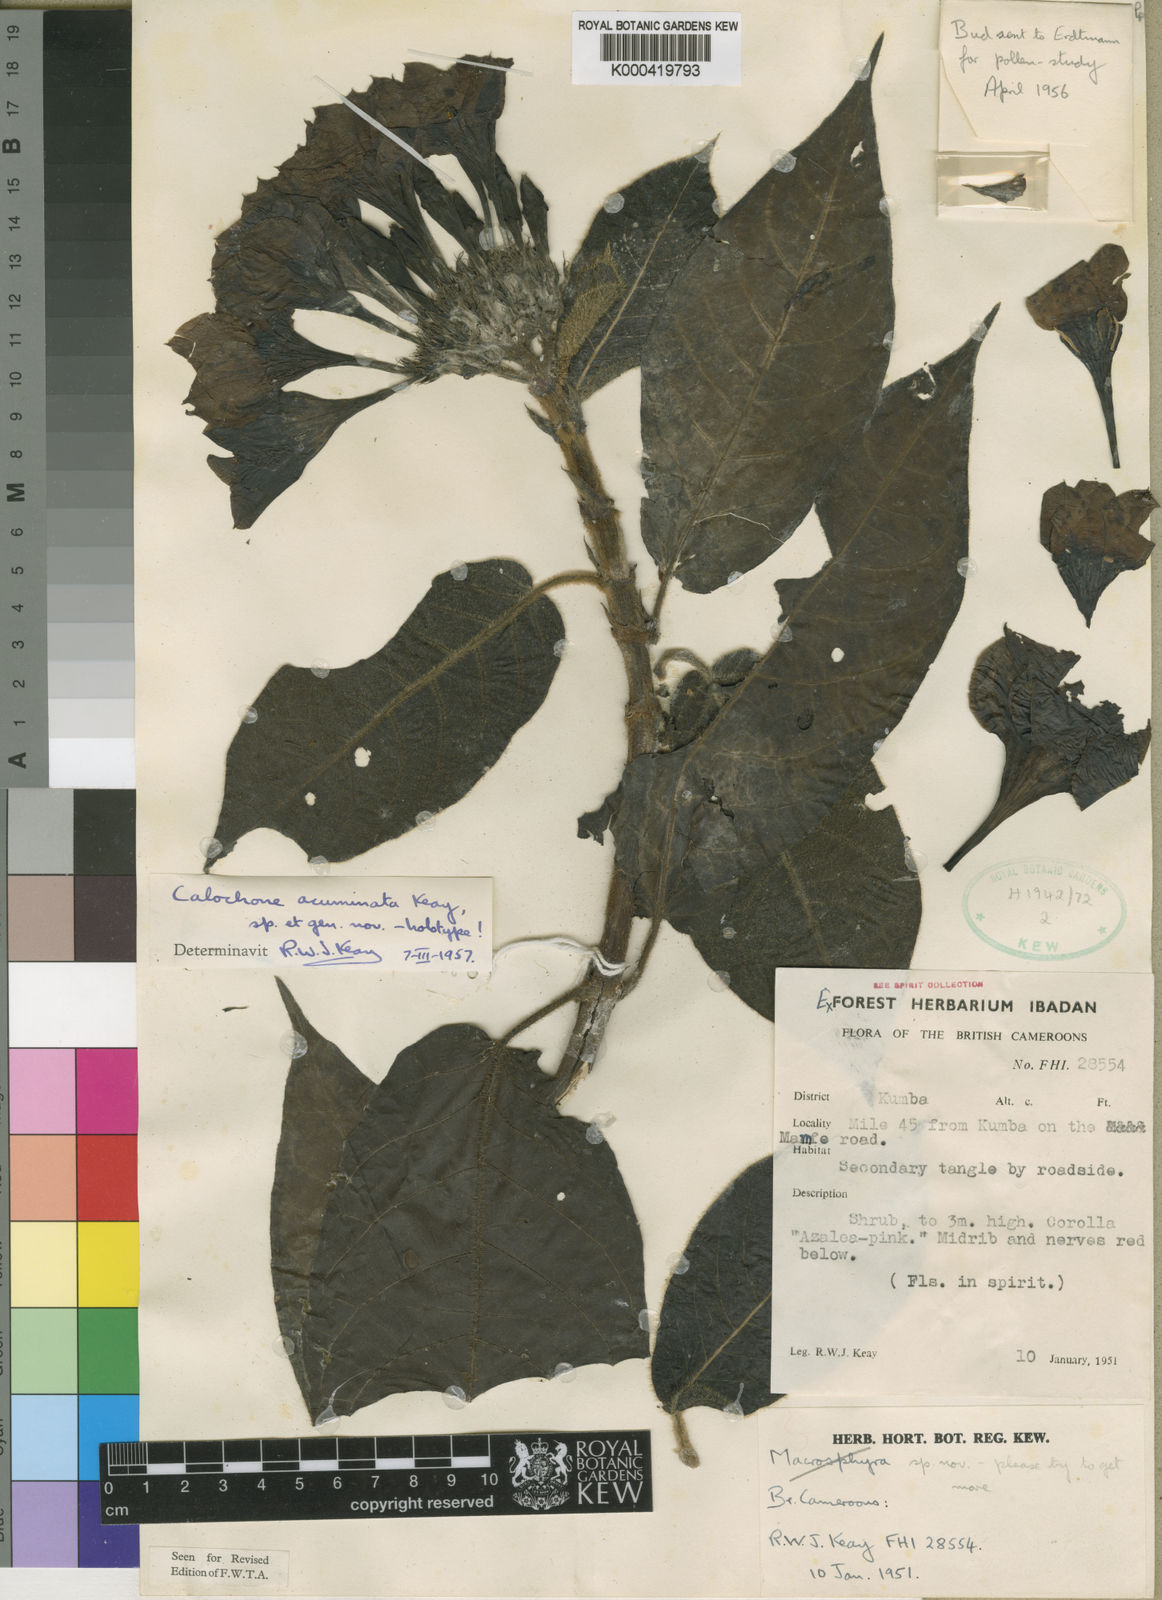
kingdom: Plantae
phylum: Tracheophyta
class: Magnoliopsida
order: Gentianales
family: Rubiaceae
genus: Calochone
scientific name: Calochone acuminata
